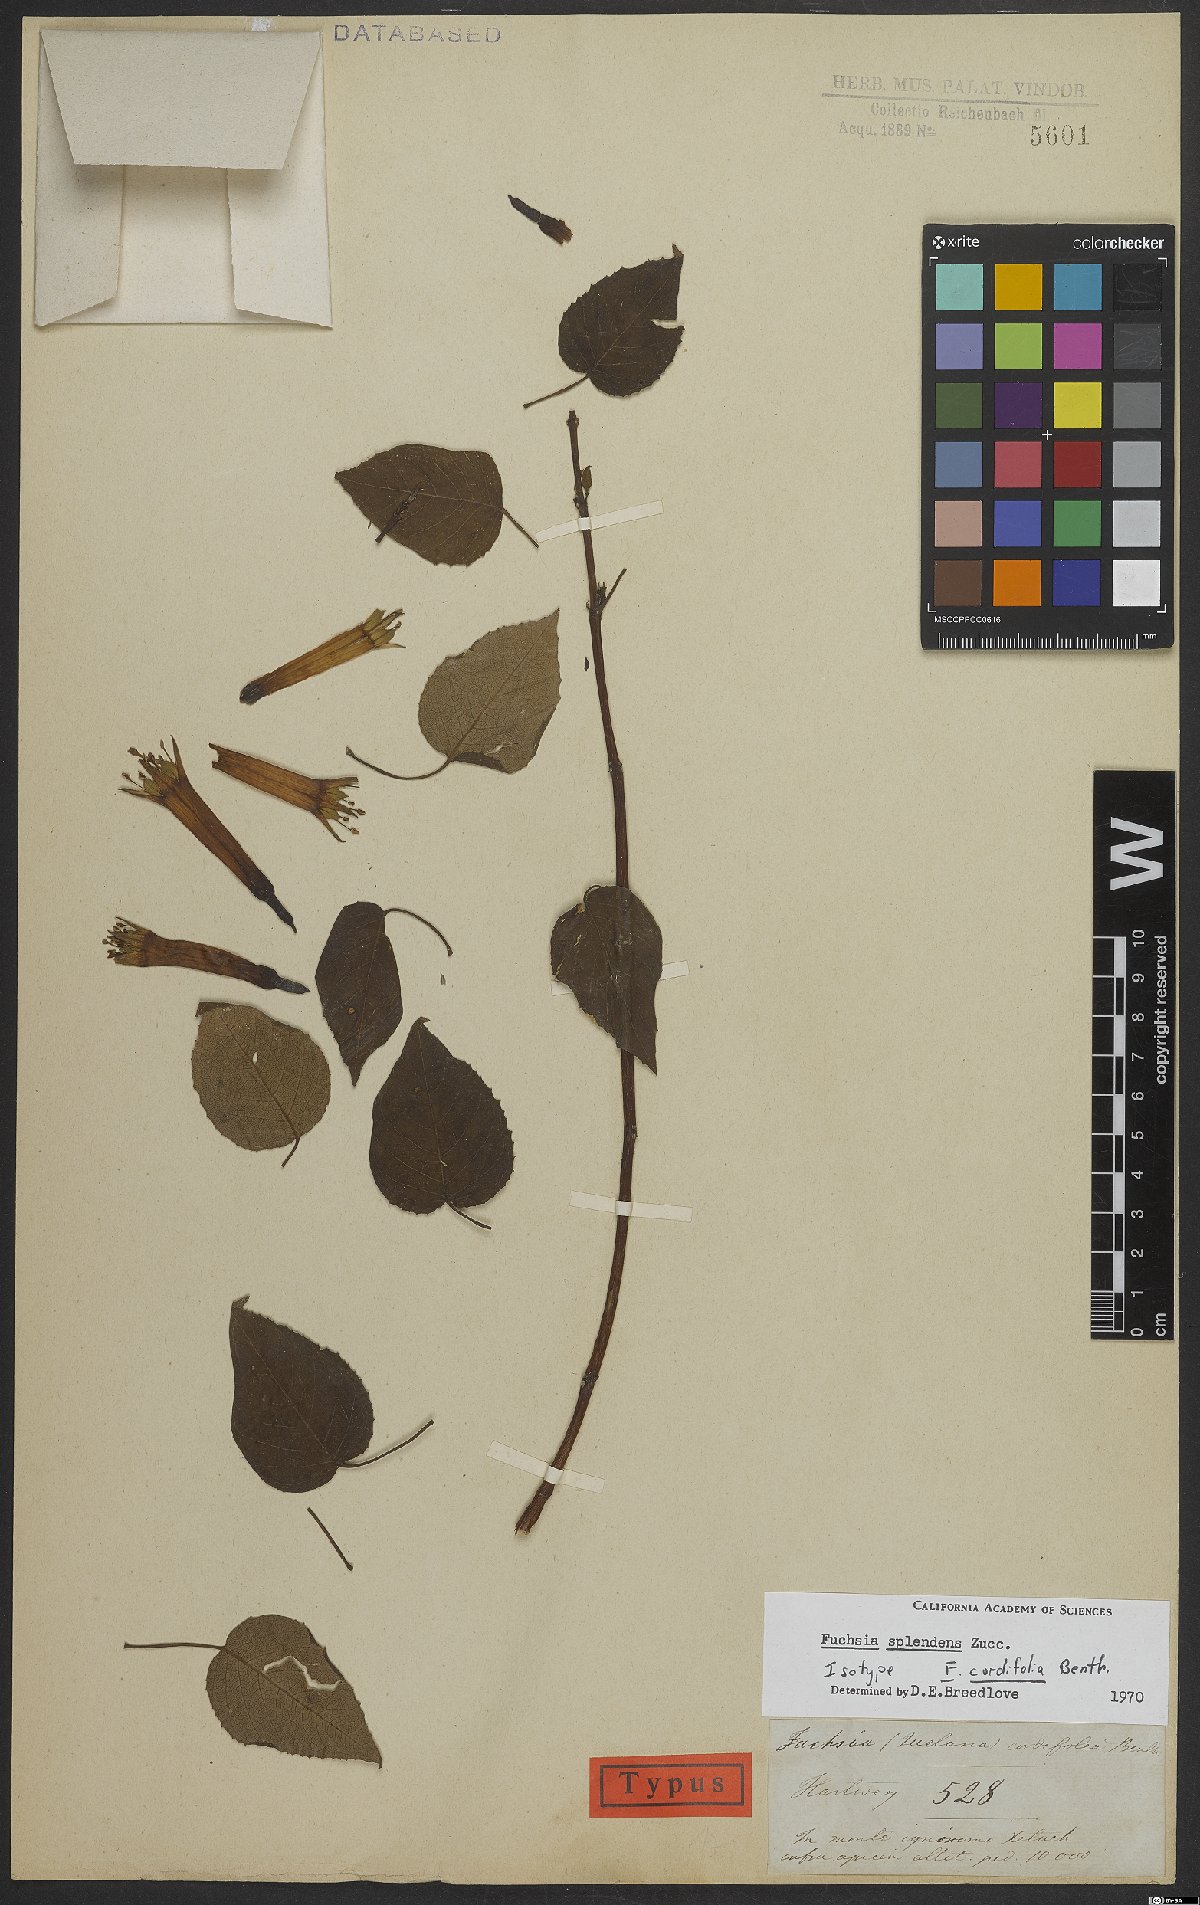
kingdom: Plantae
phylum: Tracheophyta
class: Magnoliopsida
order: Myrtales
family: Onagraceae
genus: Fuchsia
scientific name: Fuchsia splendens
